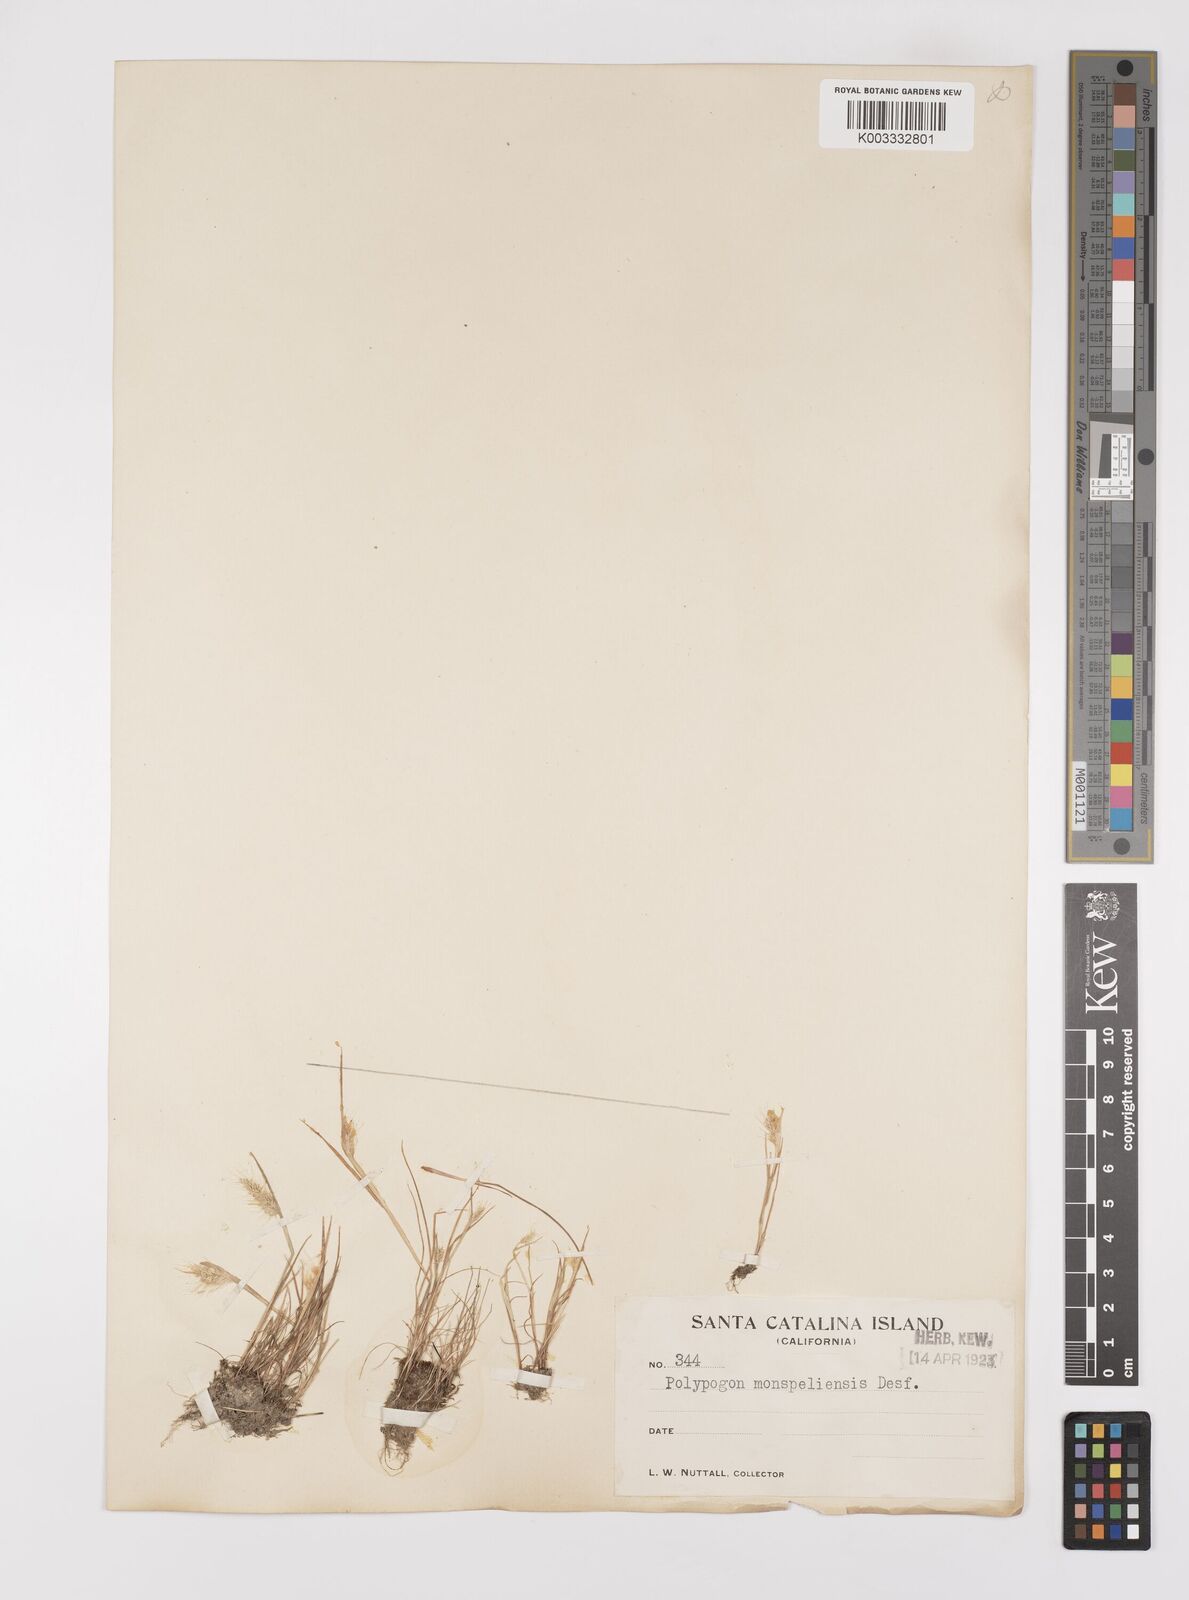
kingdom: Plantae
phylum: Tracheophyta
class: Liliopsida
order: Poales
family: Poaceae
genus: Polypogon
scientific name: Polypogon monspeliensis
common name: Annual rabbitsfoot grass
